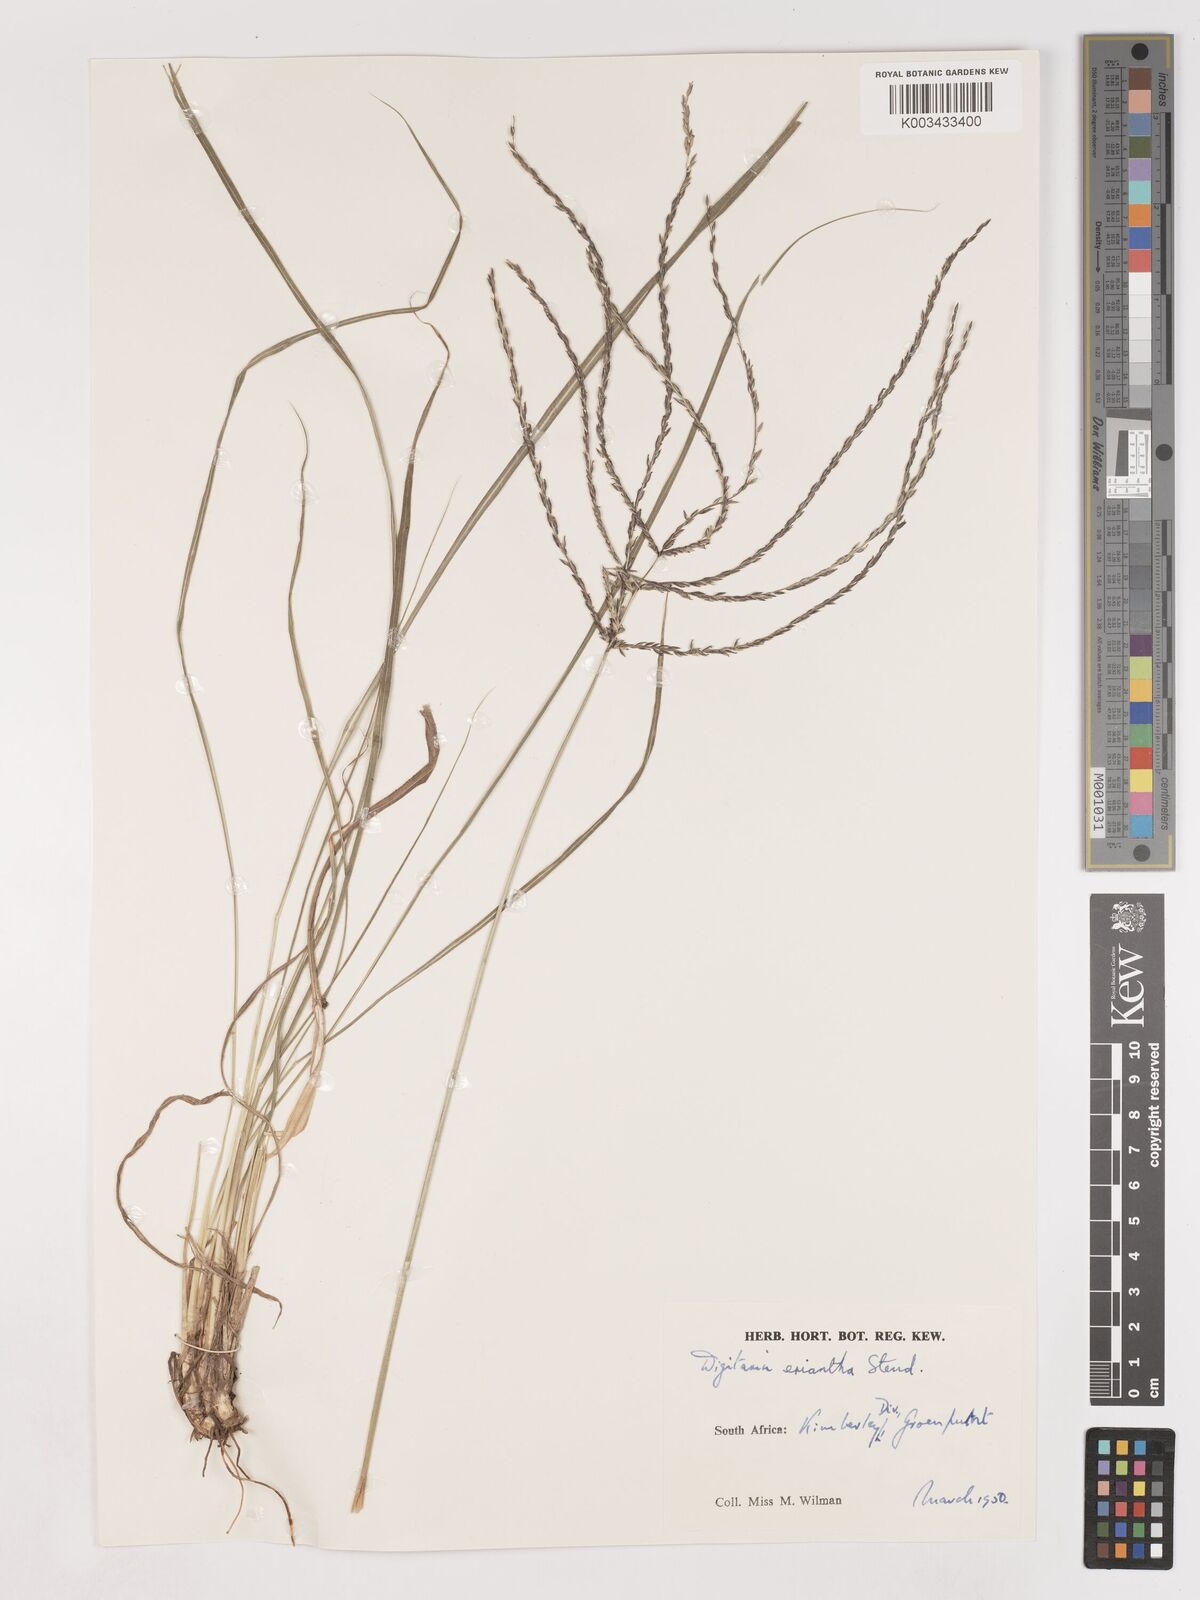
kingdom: Plantae
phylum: Tracheophyta
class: Liliopsida
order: Poales
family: Poaceae
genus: Digitaria
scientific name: Digitaria eriantha
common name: Digitgrass
